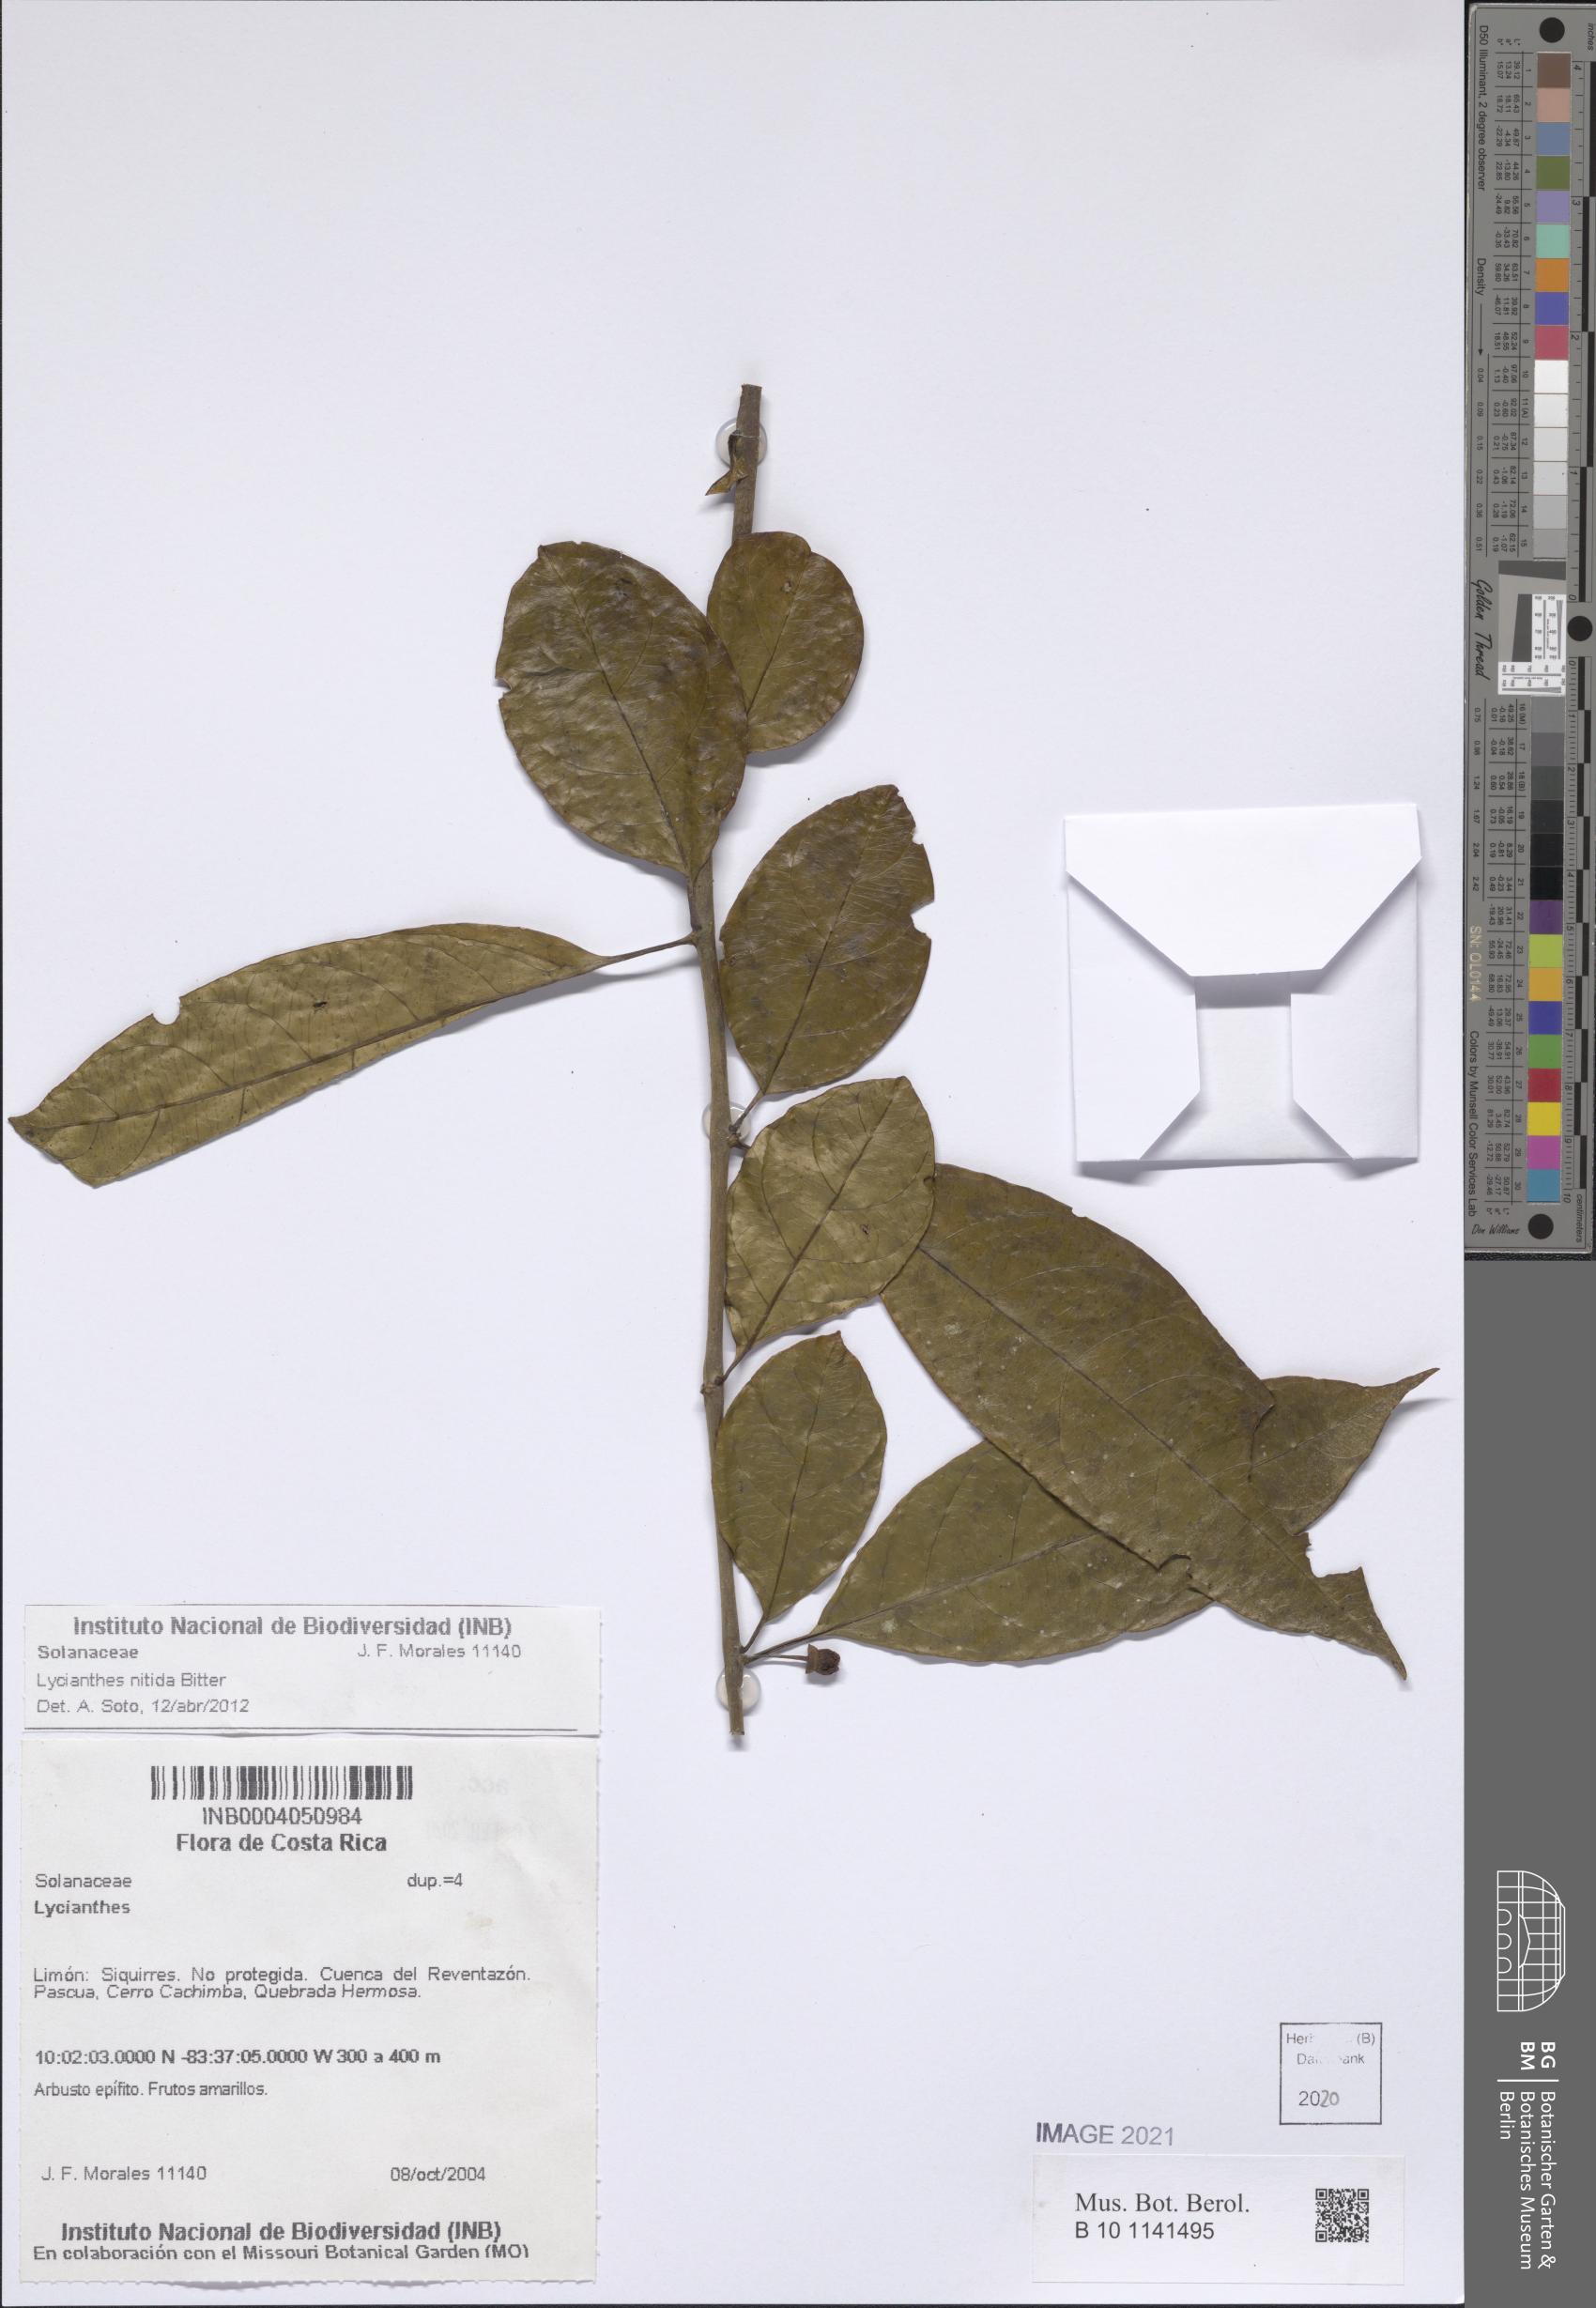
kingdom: Plantae
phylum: Tracheophyta
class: Magnoliopsida
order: Solanales
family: Solanaceae
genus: Lycianthes
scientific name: Lycianthes nitida
